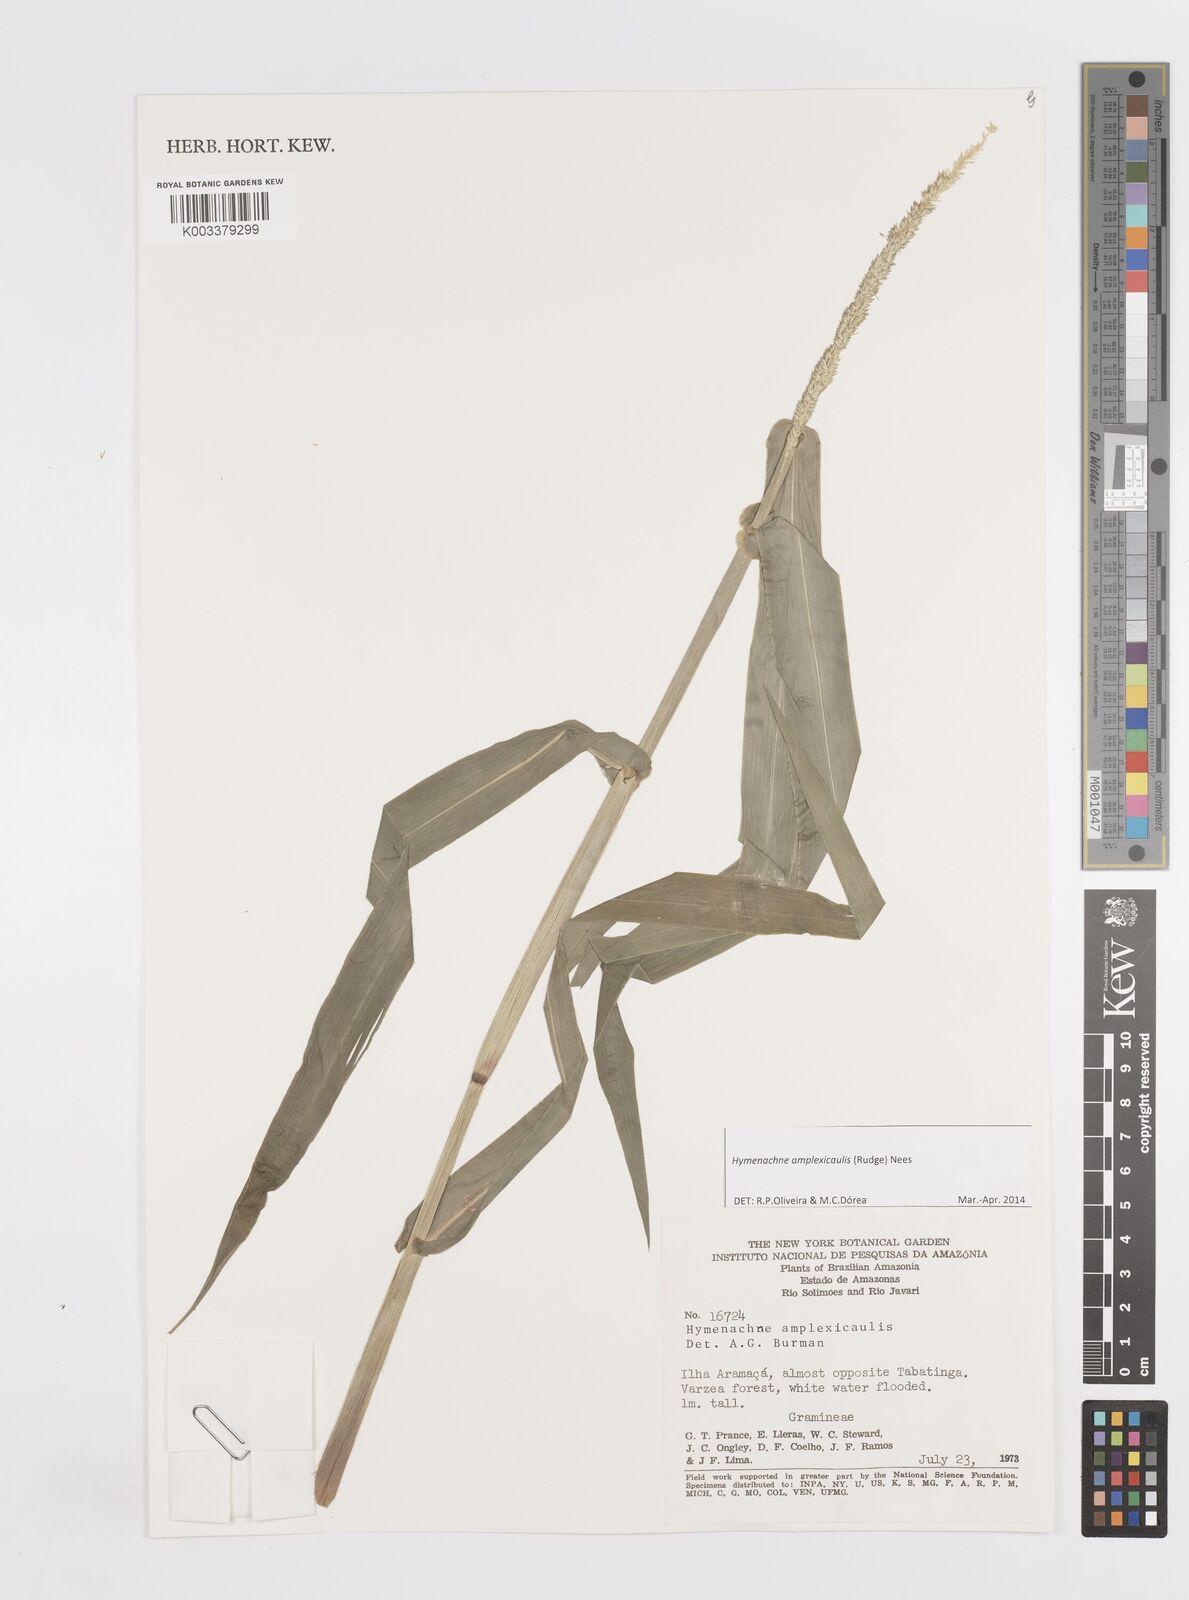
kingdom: Plantae
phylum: Tracheophyta
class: Liliopsida
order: Poales
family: Poaceae
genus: Hymenachne
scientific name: Hymenachne amplexicaulis
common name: Olive hymenachne
